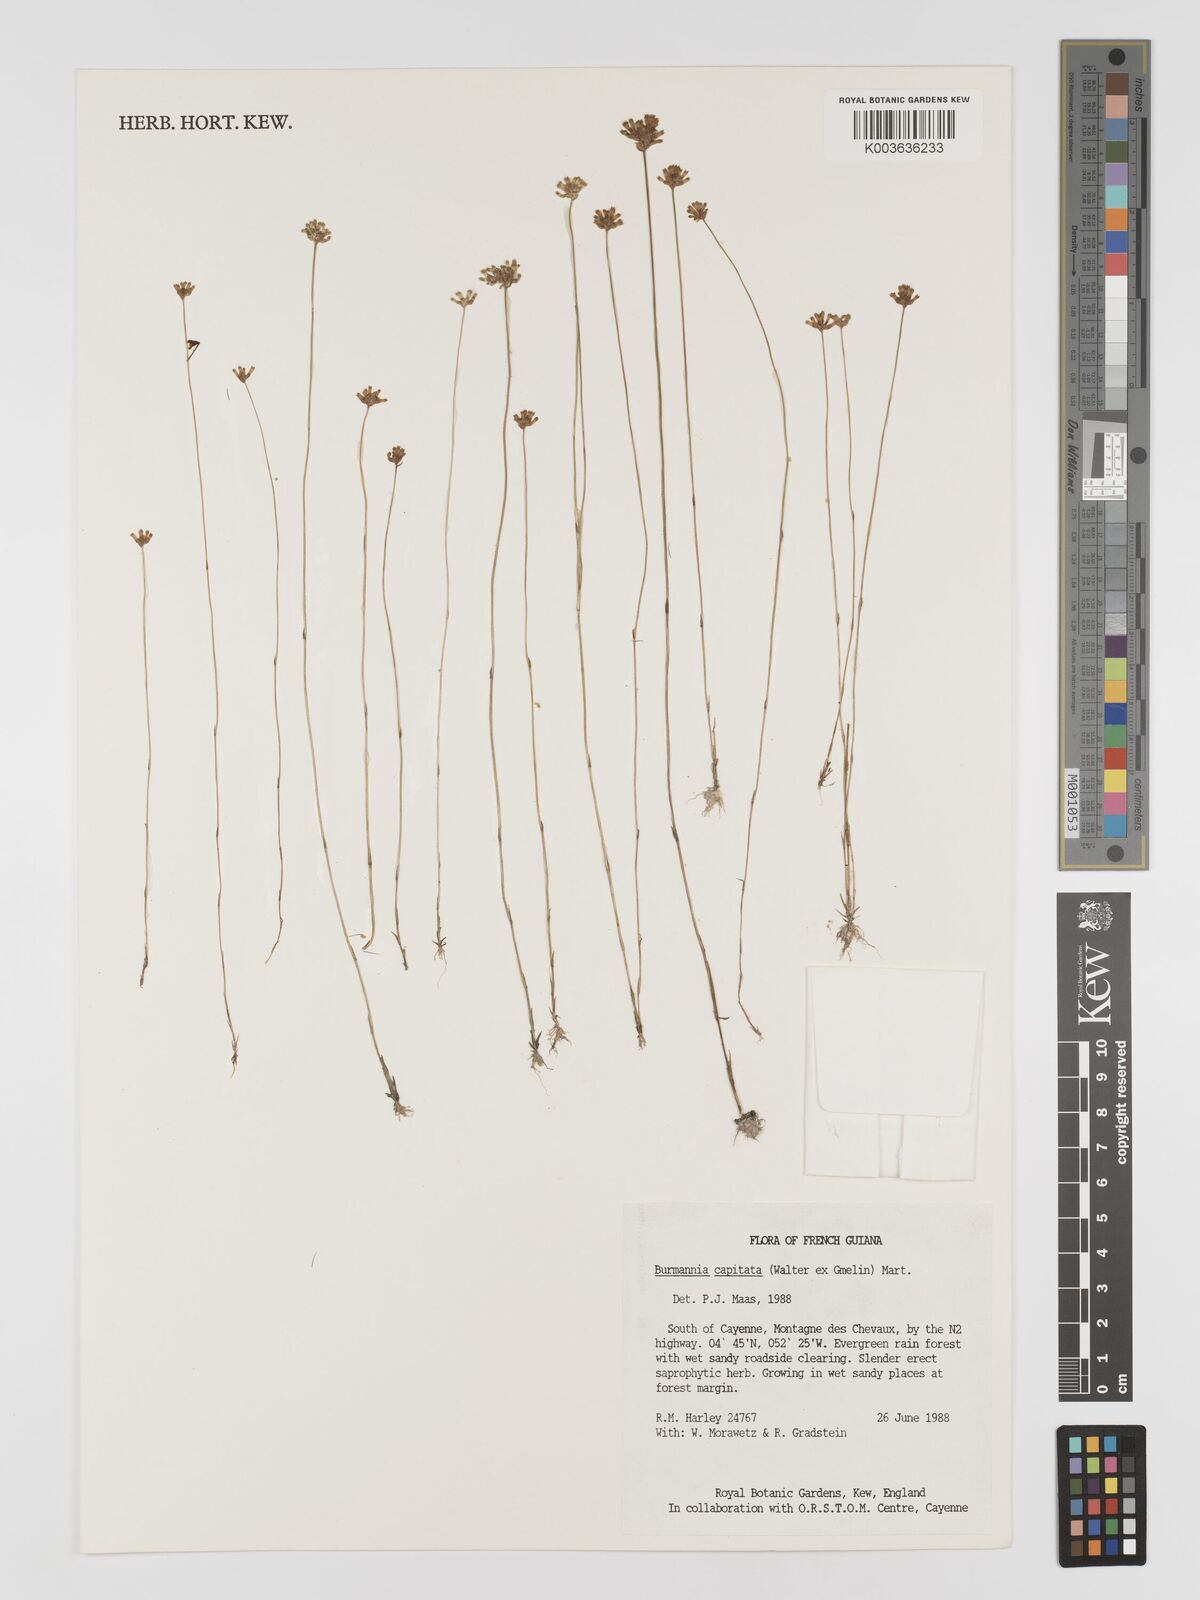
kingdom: Plantae
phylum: Tracheophyta
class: Liliopsida
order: Dioscoreales
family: Burmanniaceae
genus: Burmannia
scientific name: Burmannia capitata
